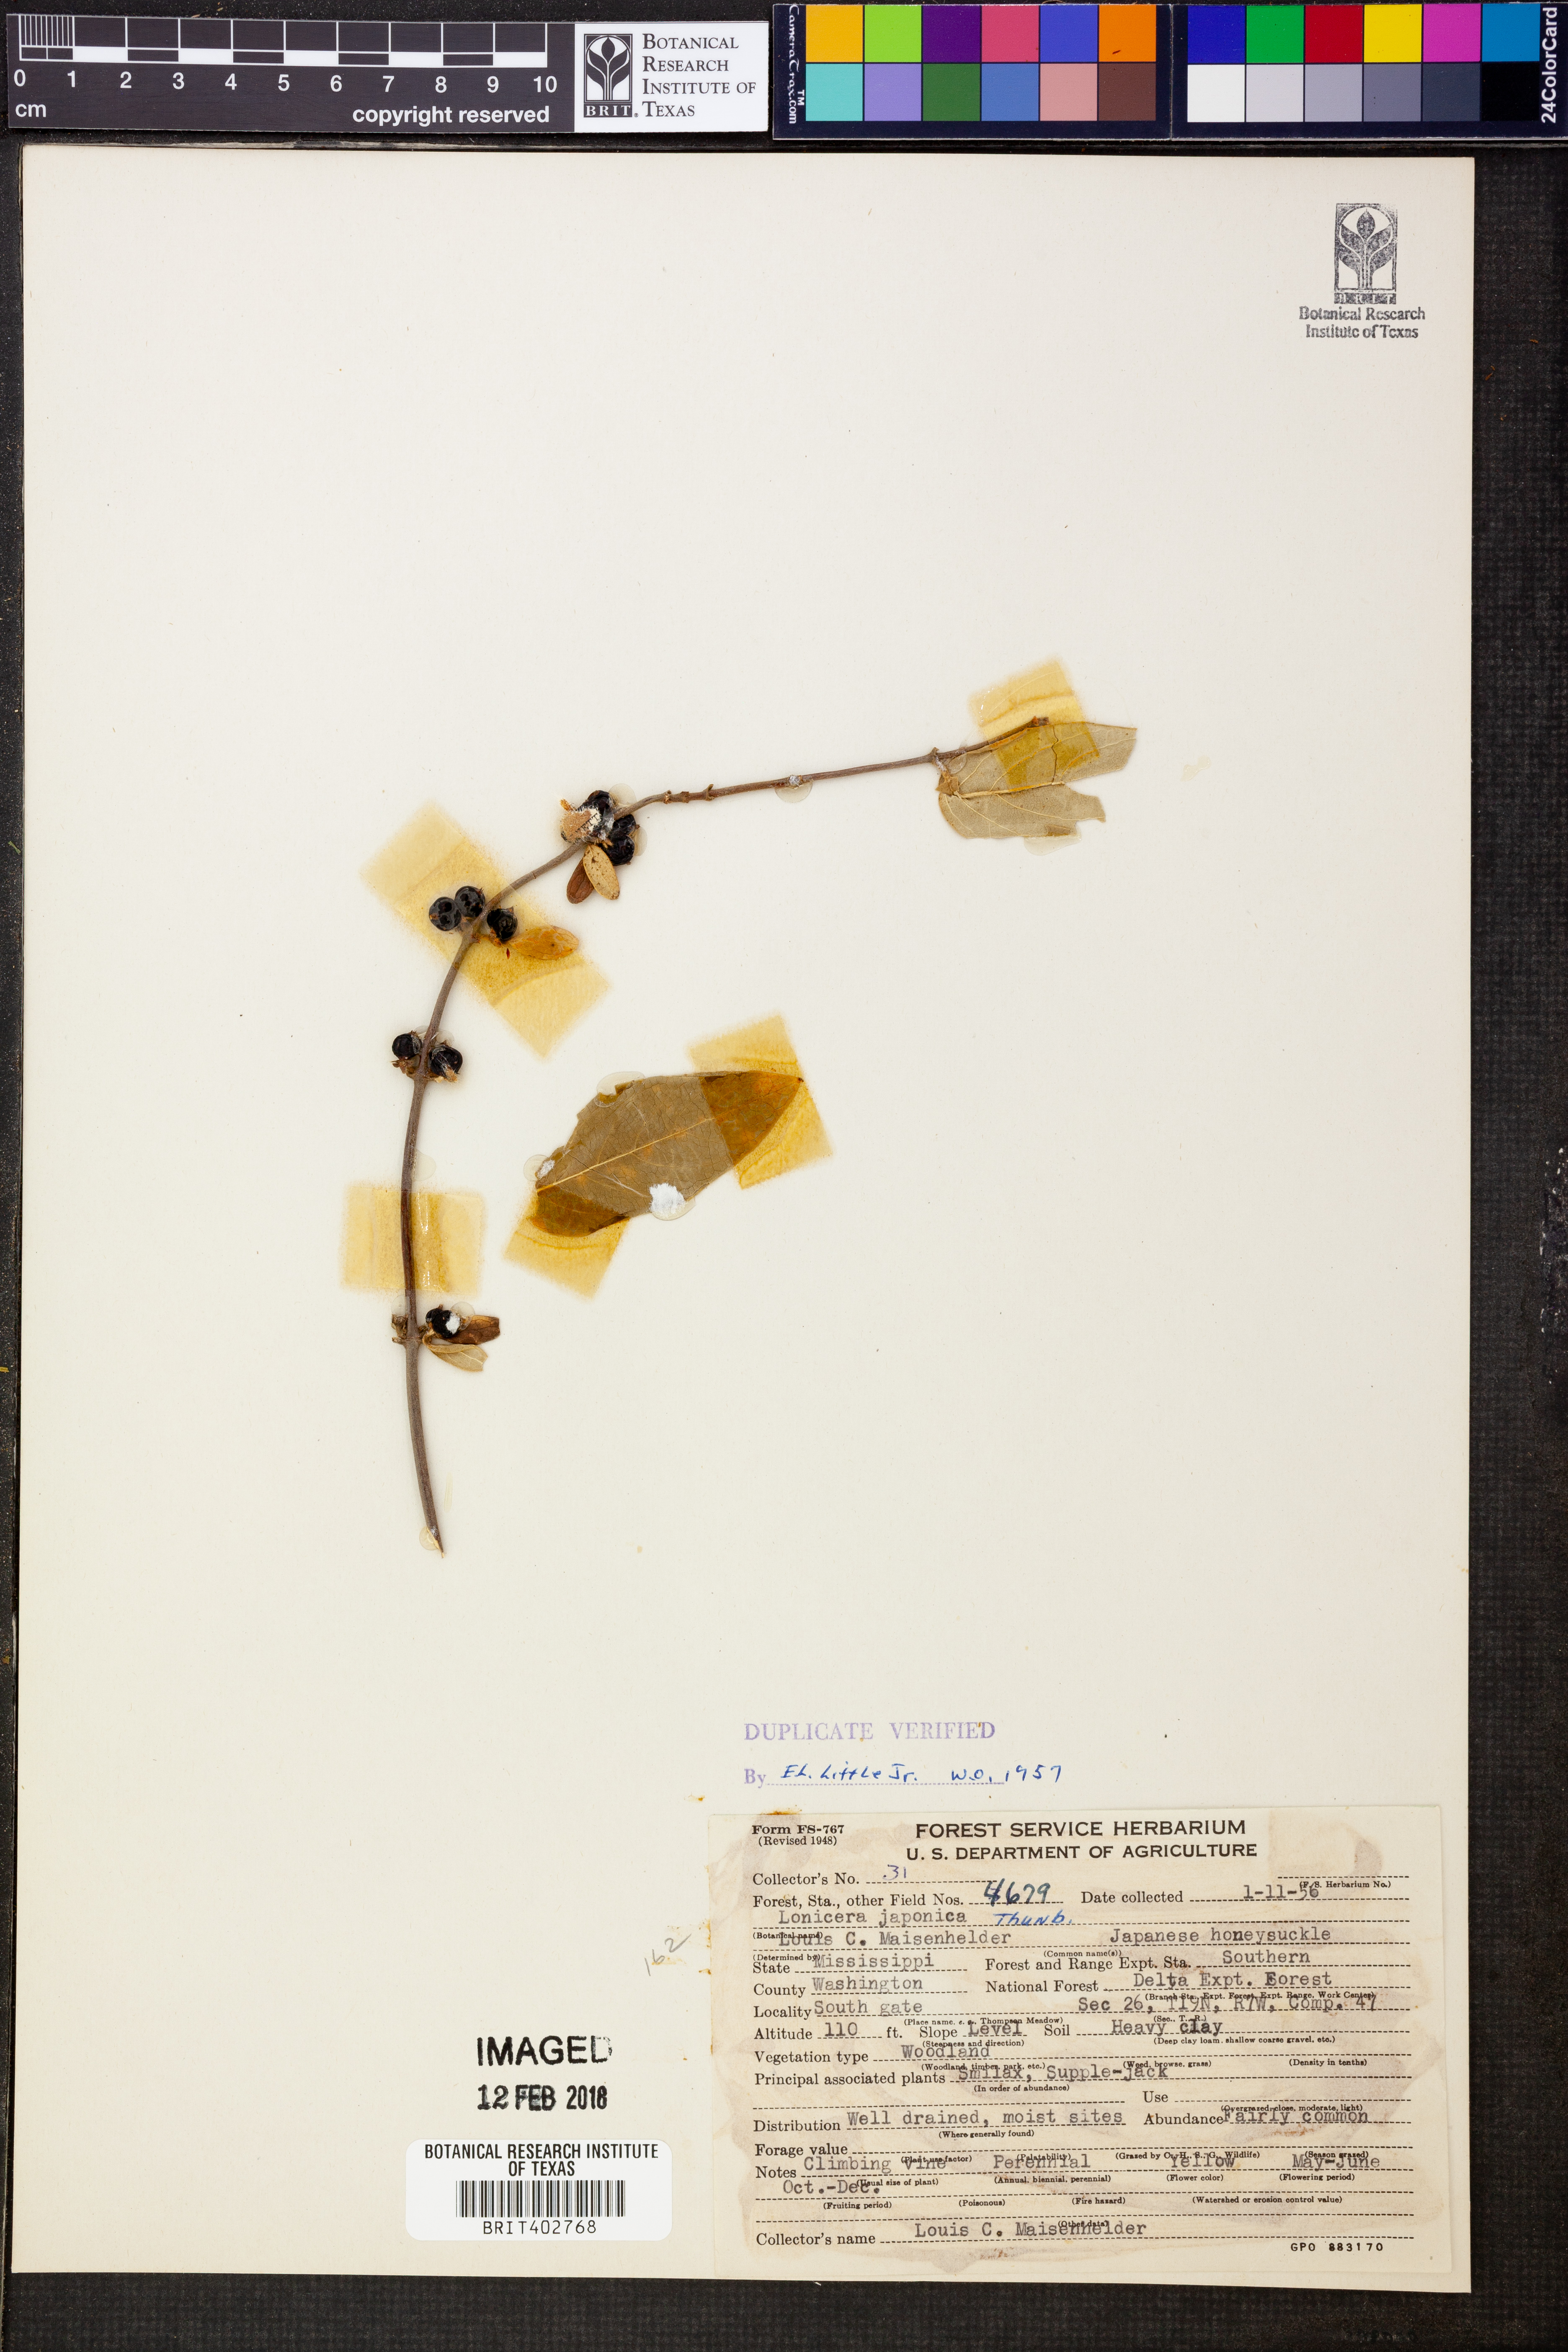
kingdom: Plantae
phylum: Tracheophyta
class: Magnoliopsida
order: Dipsacales
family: Caprifoliaceae
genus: Lonicera
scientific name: Lonicera japonica
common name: Japanese honeysuckle
